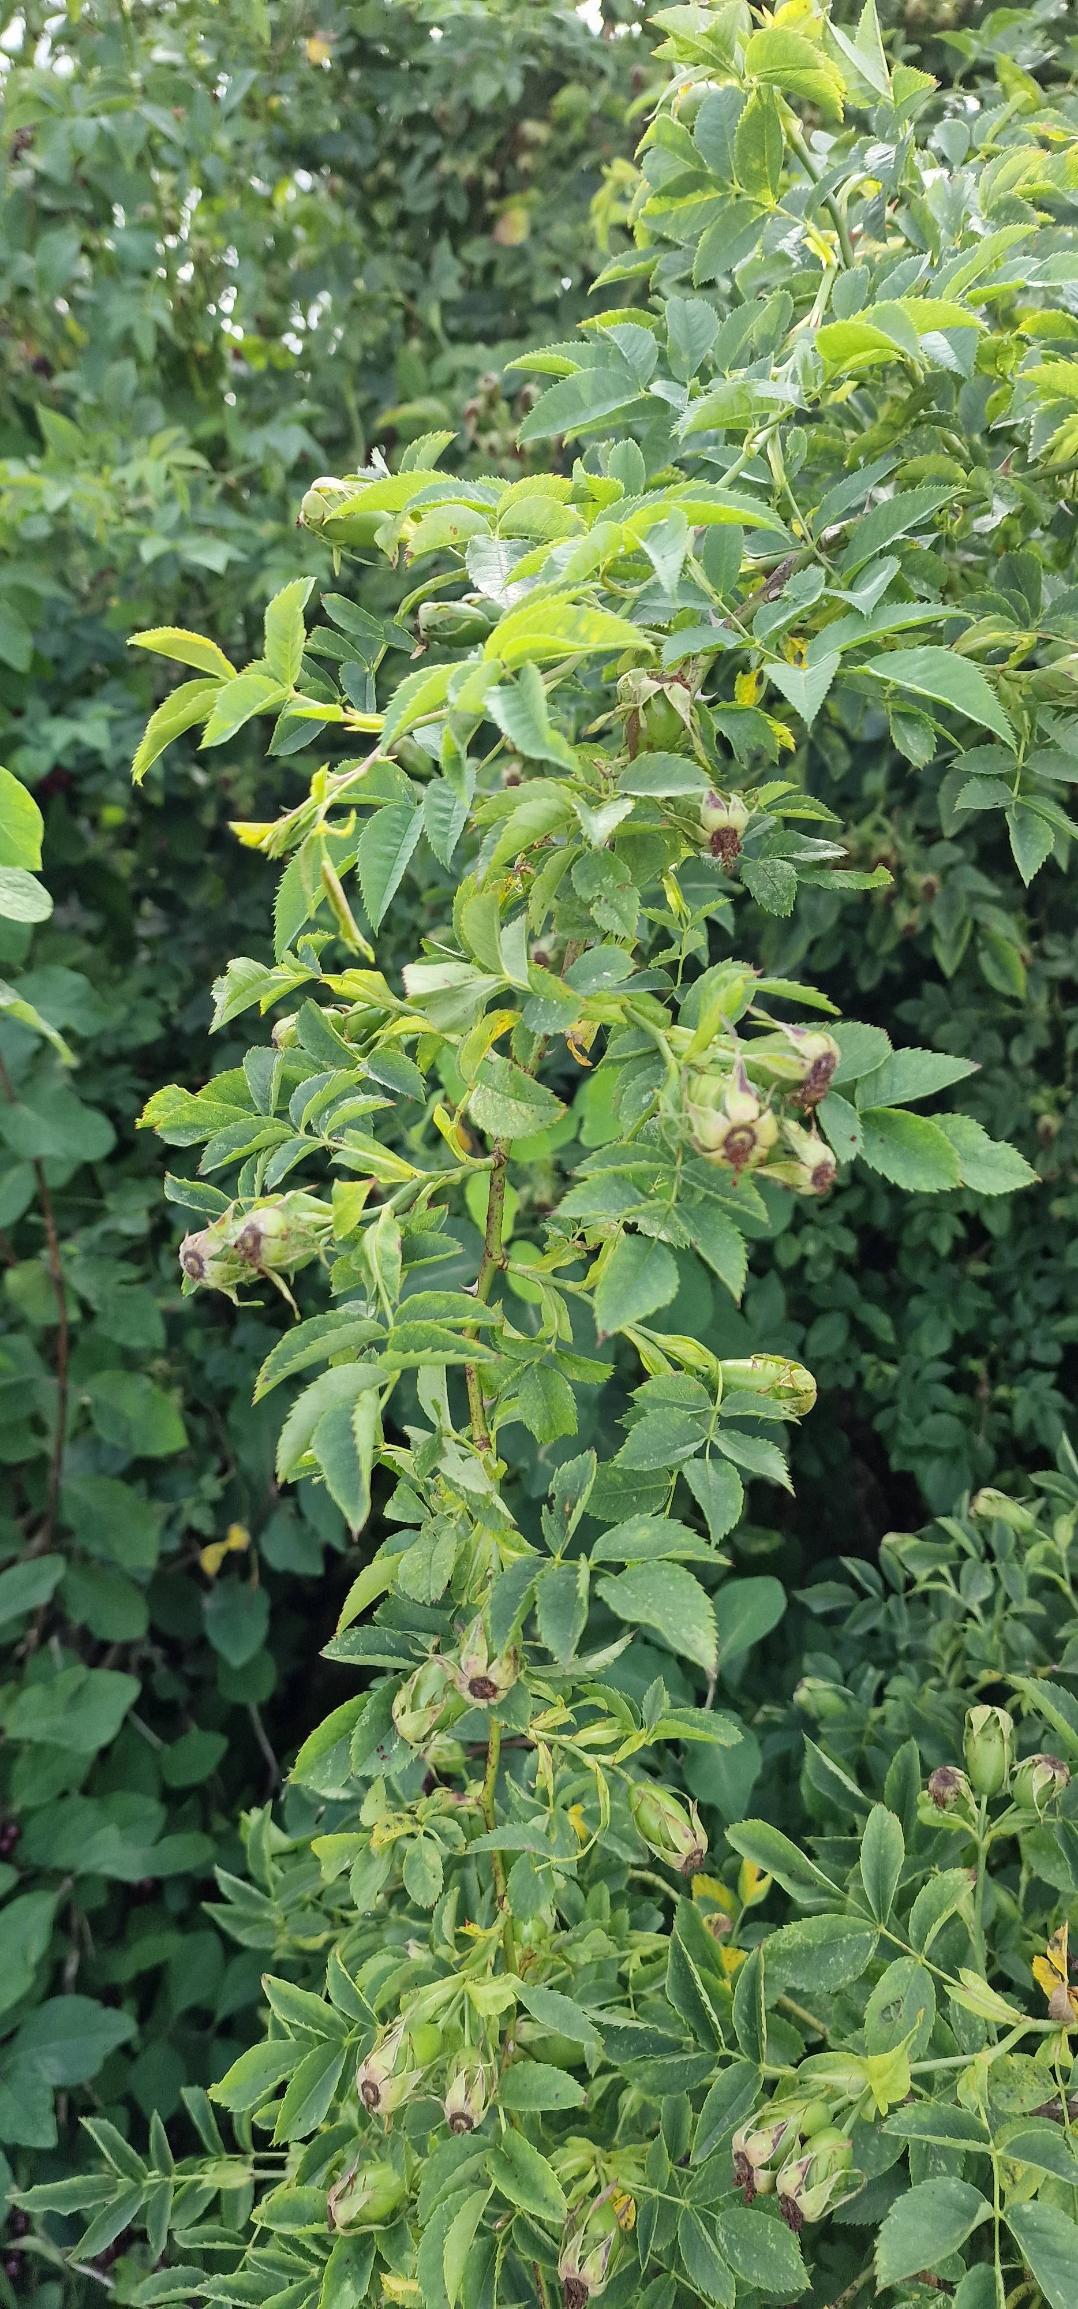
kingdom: Plantae
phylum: Tracheophyta
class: Magnoliopsida
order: Rosales
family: Rosaceae
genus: Rosa
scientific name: Rosa canina
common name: Glat hunde-rose
